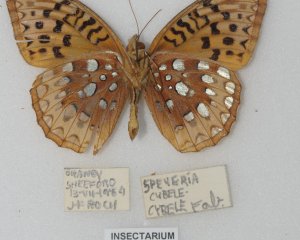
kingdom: Animalia
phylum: Arthropoda
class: Insecta
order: Lepidoptera
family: Nymphalidae
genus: Speyeria
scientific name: Speyeria cybele
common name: Great Spangled Fritillary
